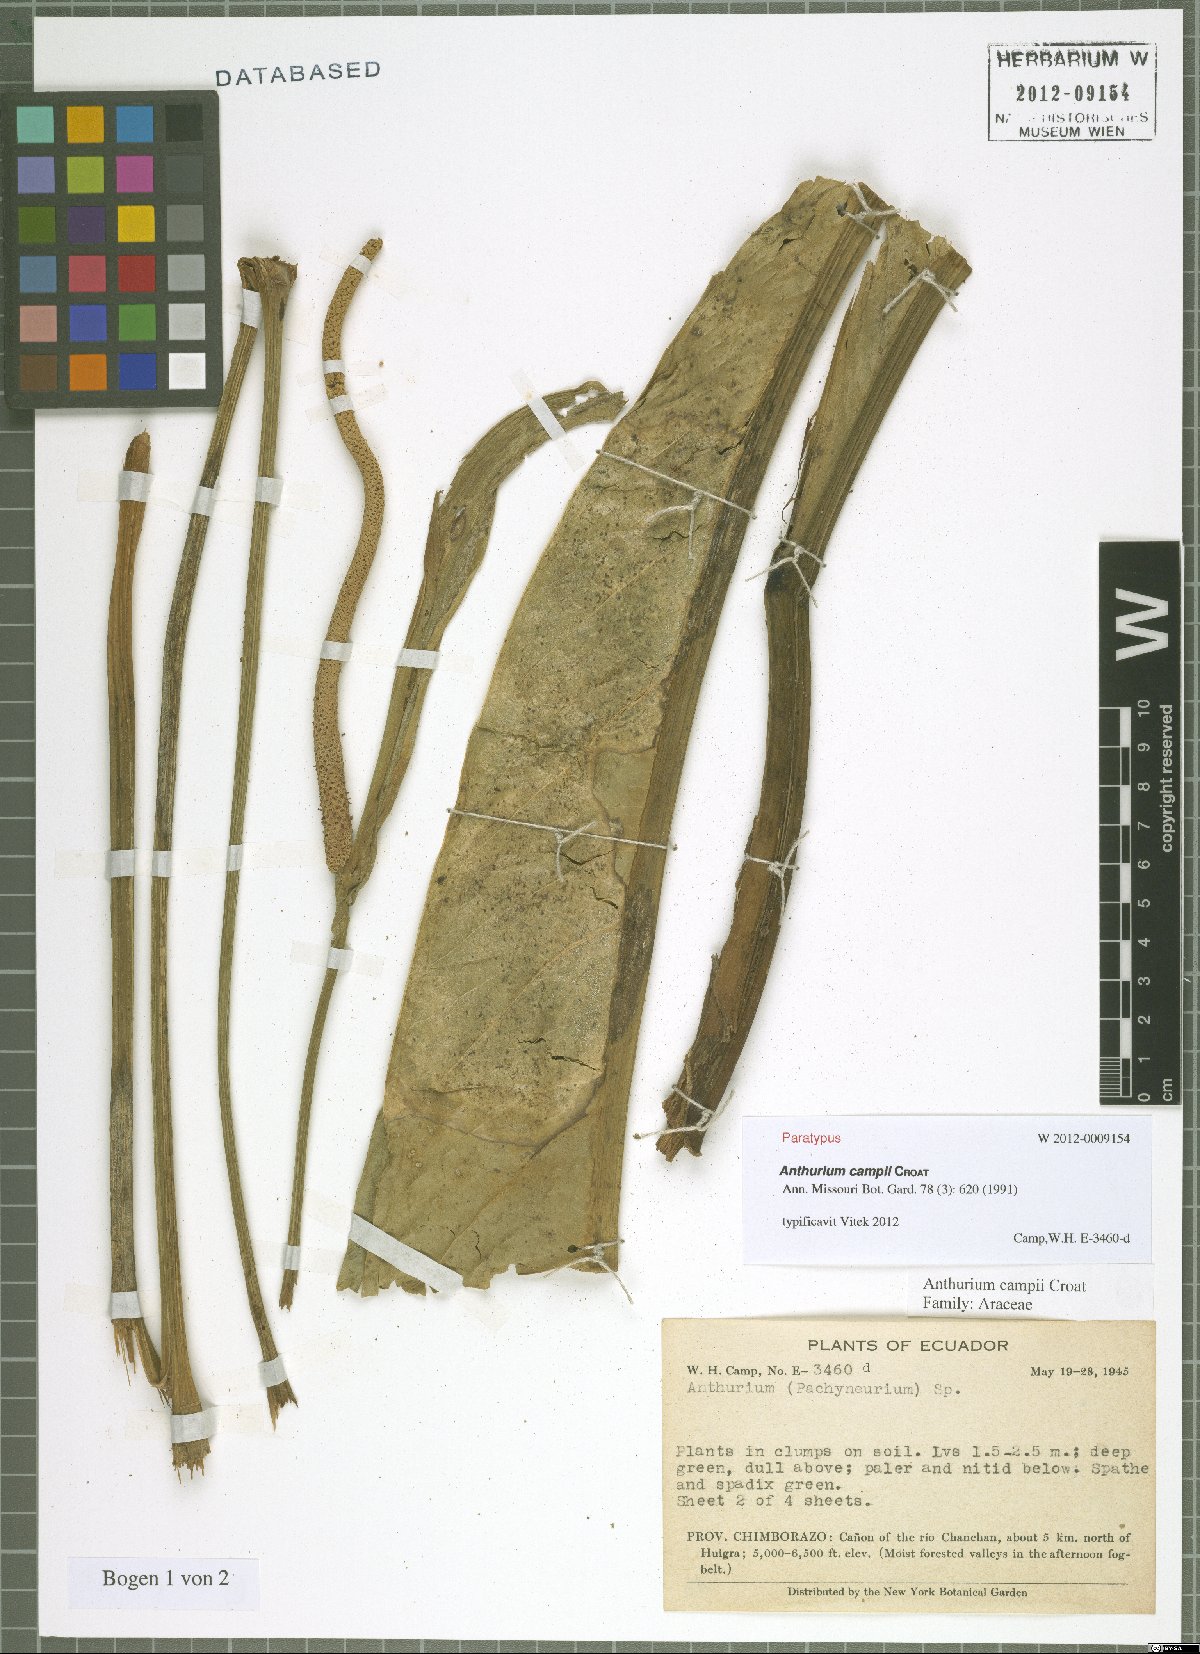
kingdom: Plantae
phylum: Tracheophyta
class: Liliopsida
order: Alismatales
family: Araceae
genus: Anthurium
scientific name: Anthurium campii
